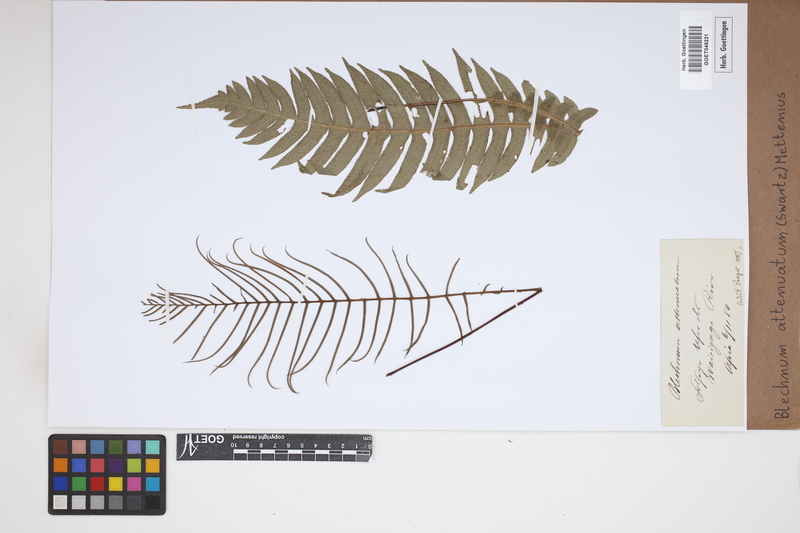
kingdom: Plantae
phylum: Tracheophyta
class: Polypodiopsida
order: Polypodiales
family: Blechnaceae
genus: Lomaridium
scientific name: Lomaridium attenuatum
